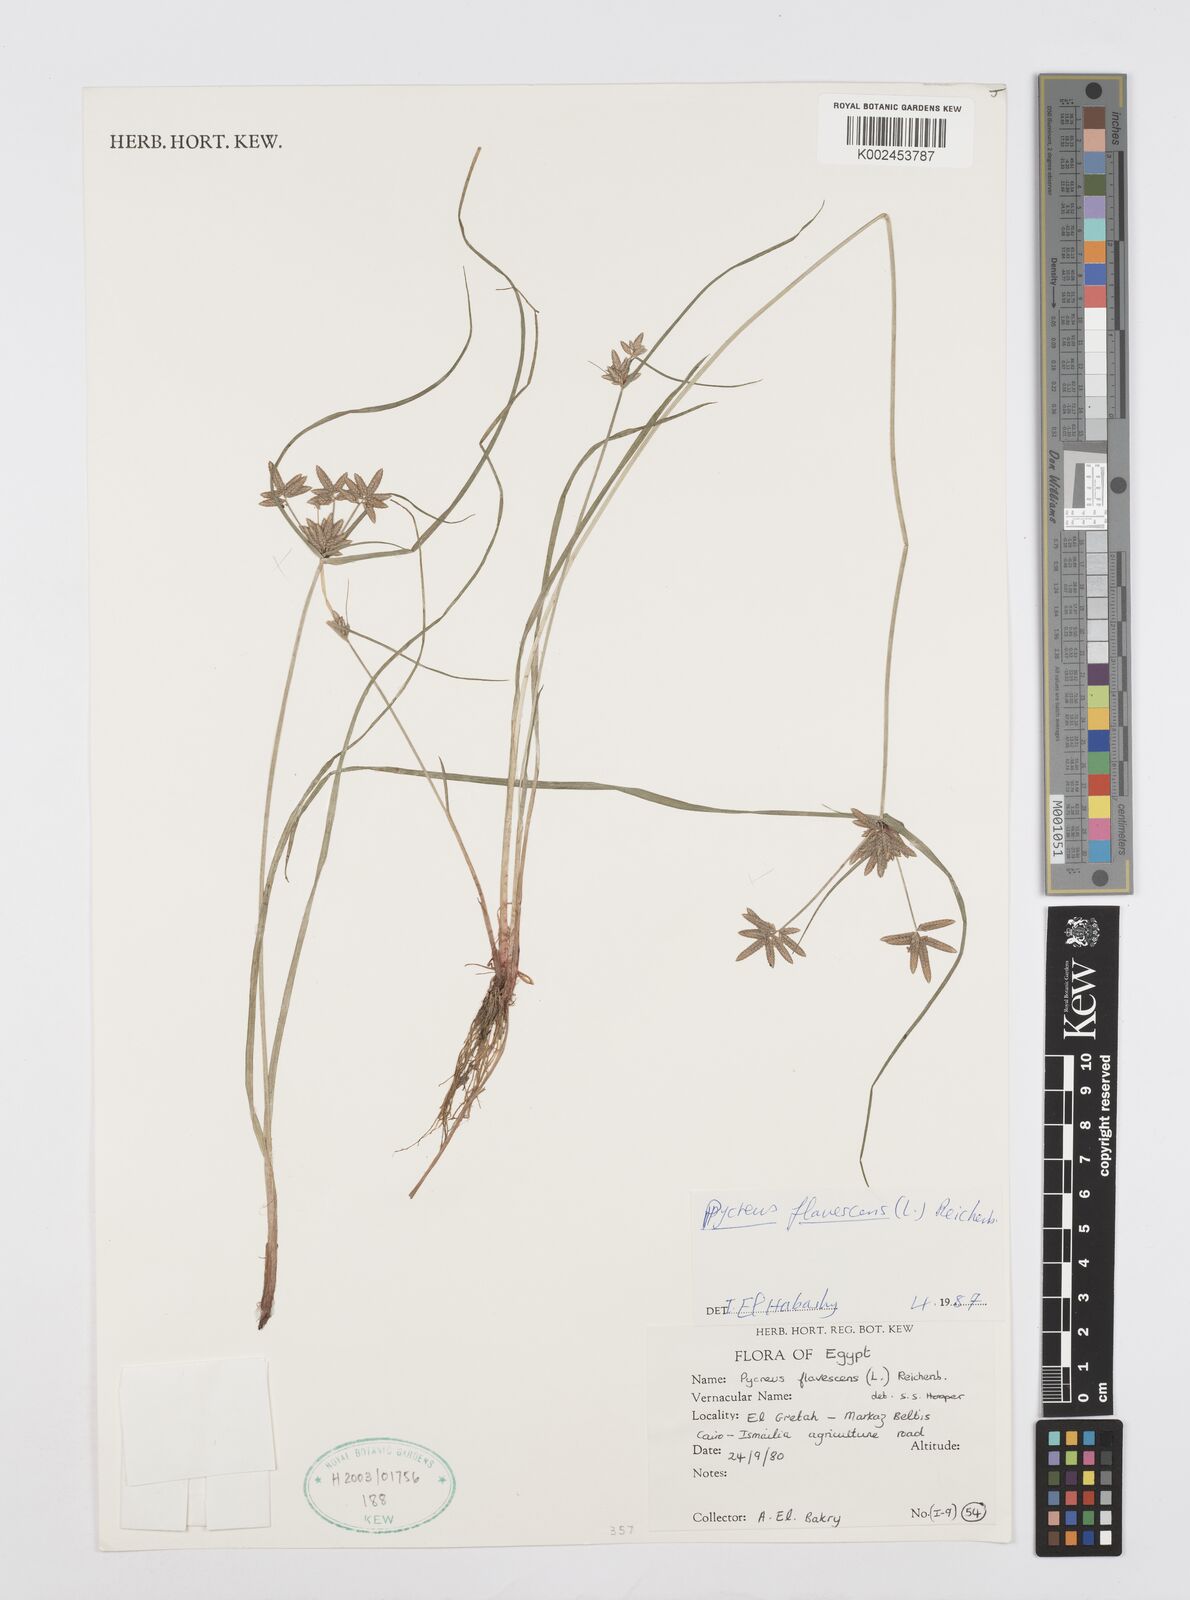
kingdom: Plantae
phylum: Tracheophyta
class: Liliopsida
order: Poales
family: Cyperaceae
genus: Cyperus
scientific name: Cyperus flavescens
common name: Yellow galingale
